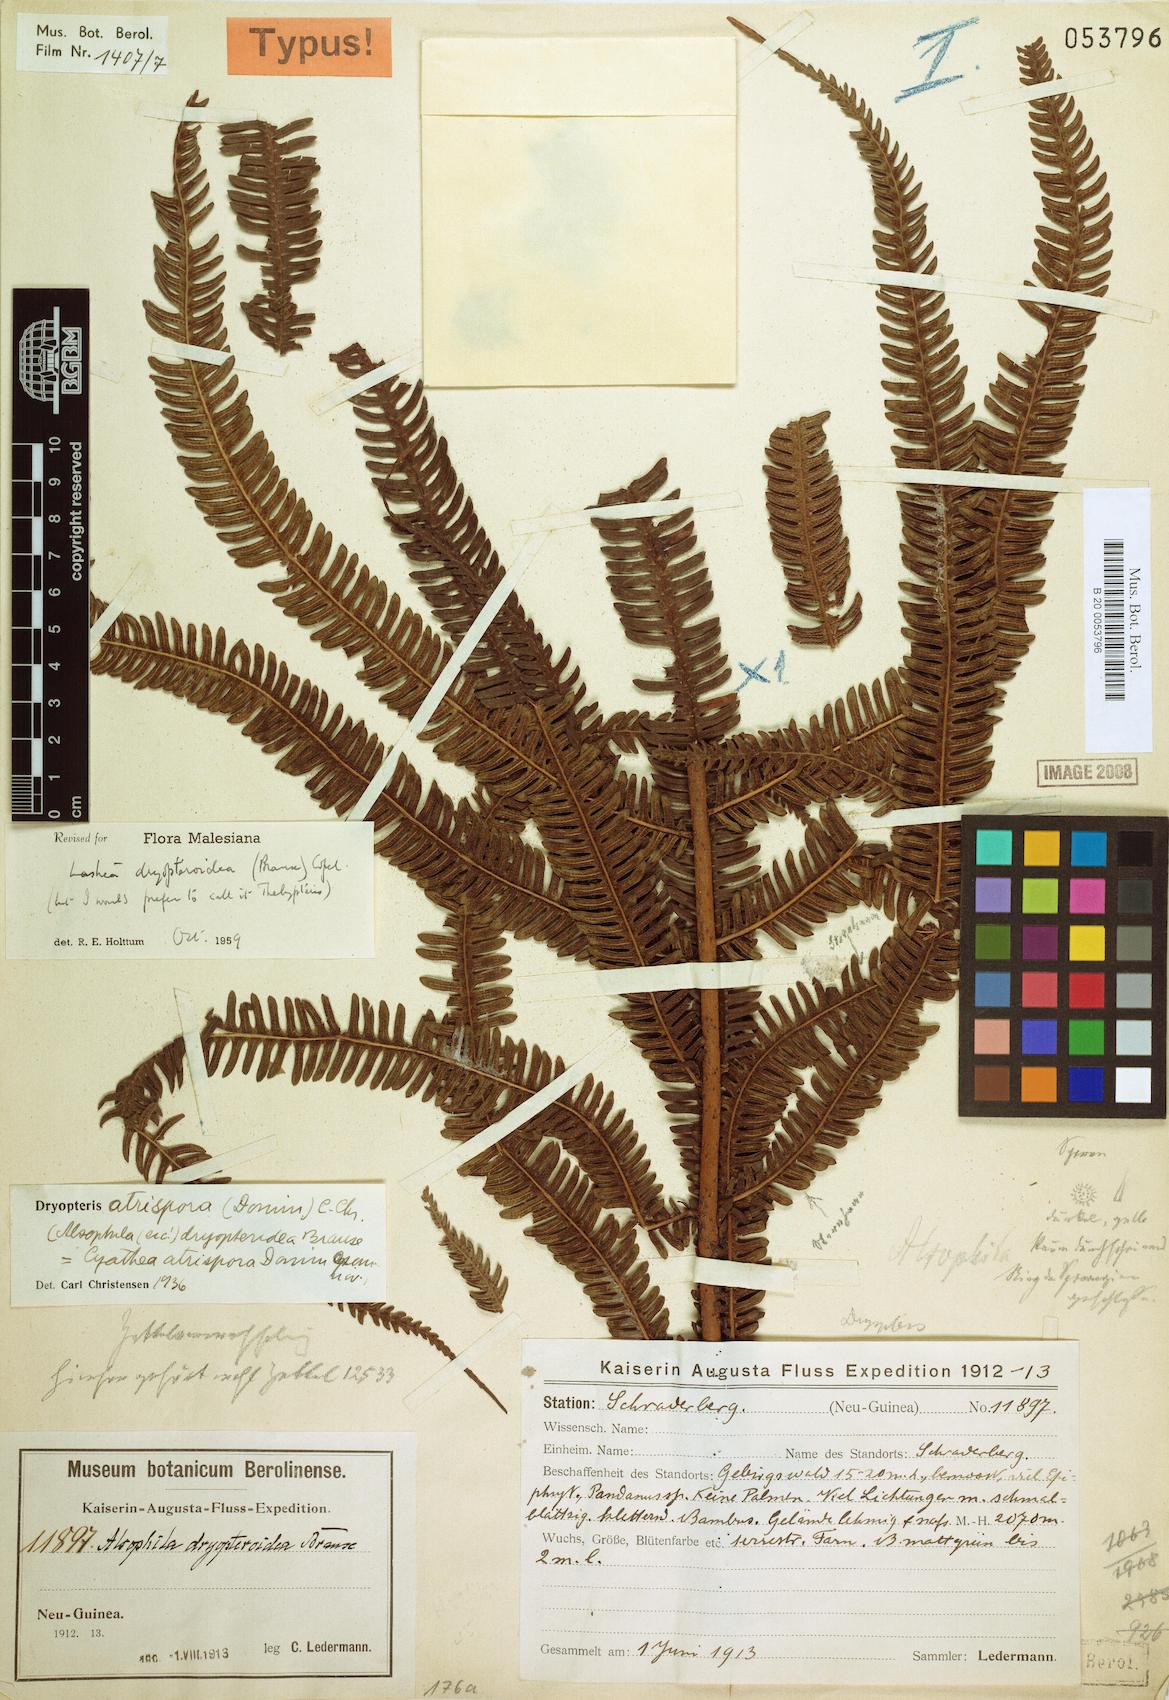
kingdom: Plantae
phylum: Tracheophyta
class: Polypodiopsida
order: Polypodiales
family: Thelypteridaceae
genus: Plesioneuron
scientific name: Plesioneuron dryopteroideum
